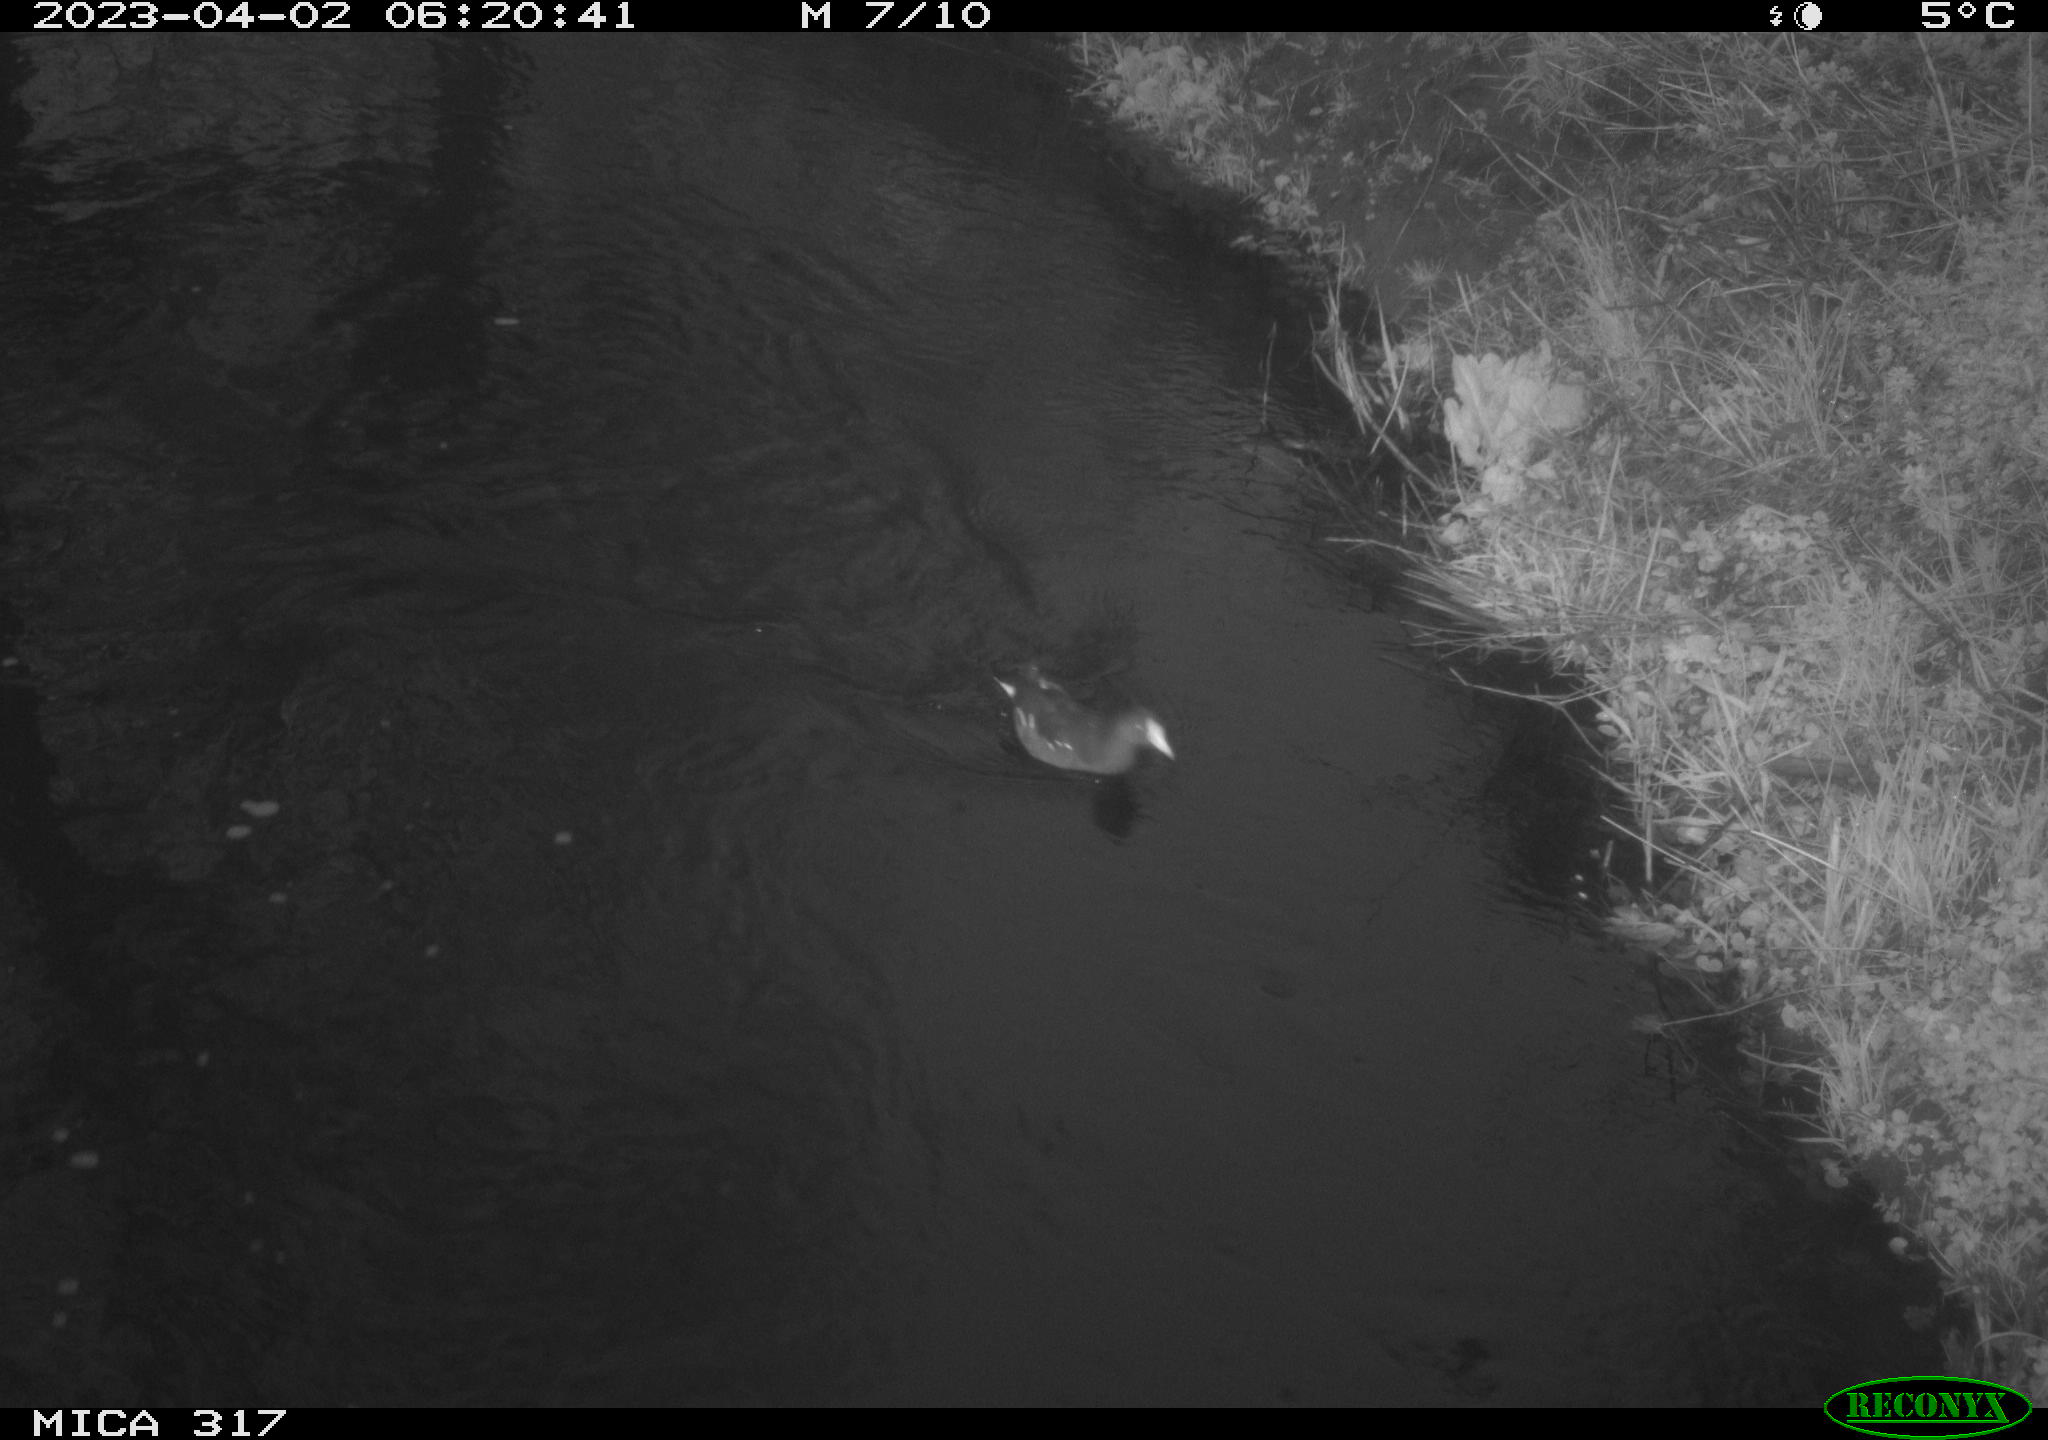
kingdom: Animalia
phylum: Chordata
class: Aves
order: Gruiformes
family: Rallidae
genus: Gallinula
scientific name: Gallinula chloropus
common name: Common moorhen
